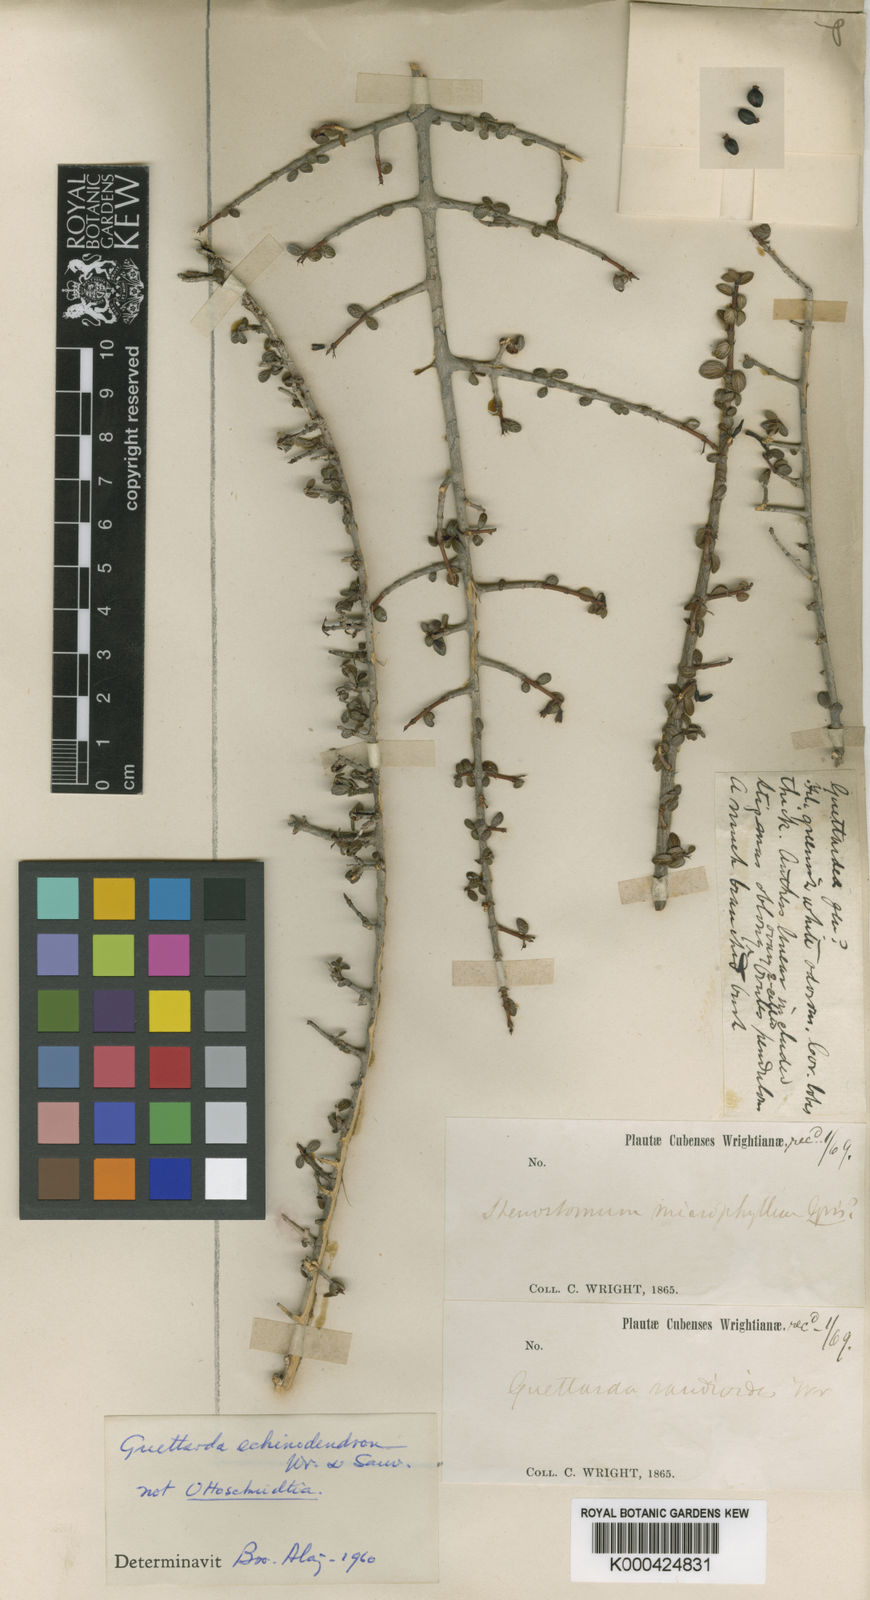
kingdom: Plantae
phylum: Tracheophyta
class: Magnoliopsida
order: Gentianales
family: Rubiaceae
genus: Ottoschmidtia
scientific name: Ottoschmidtia microphylla
